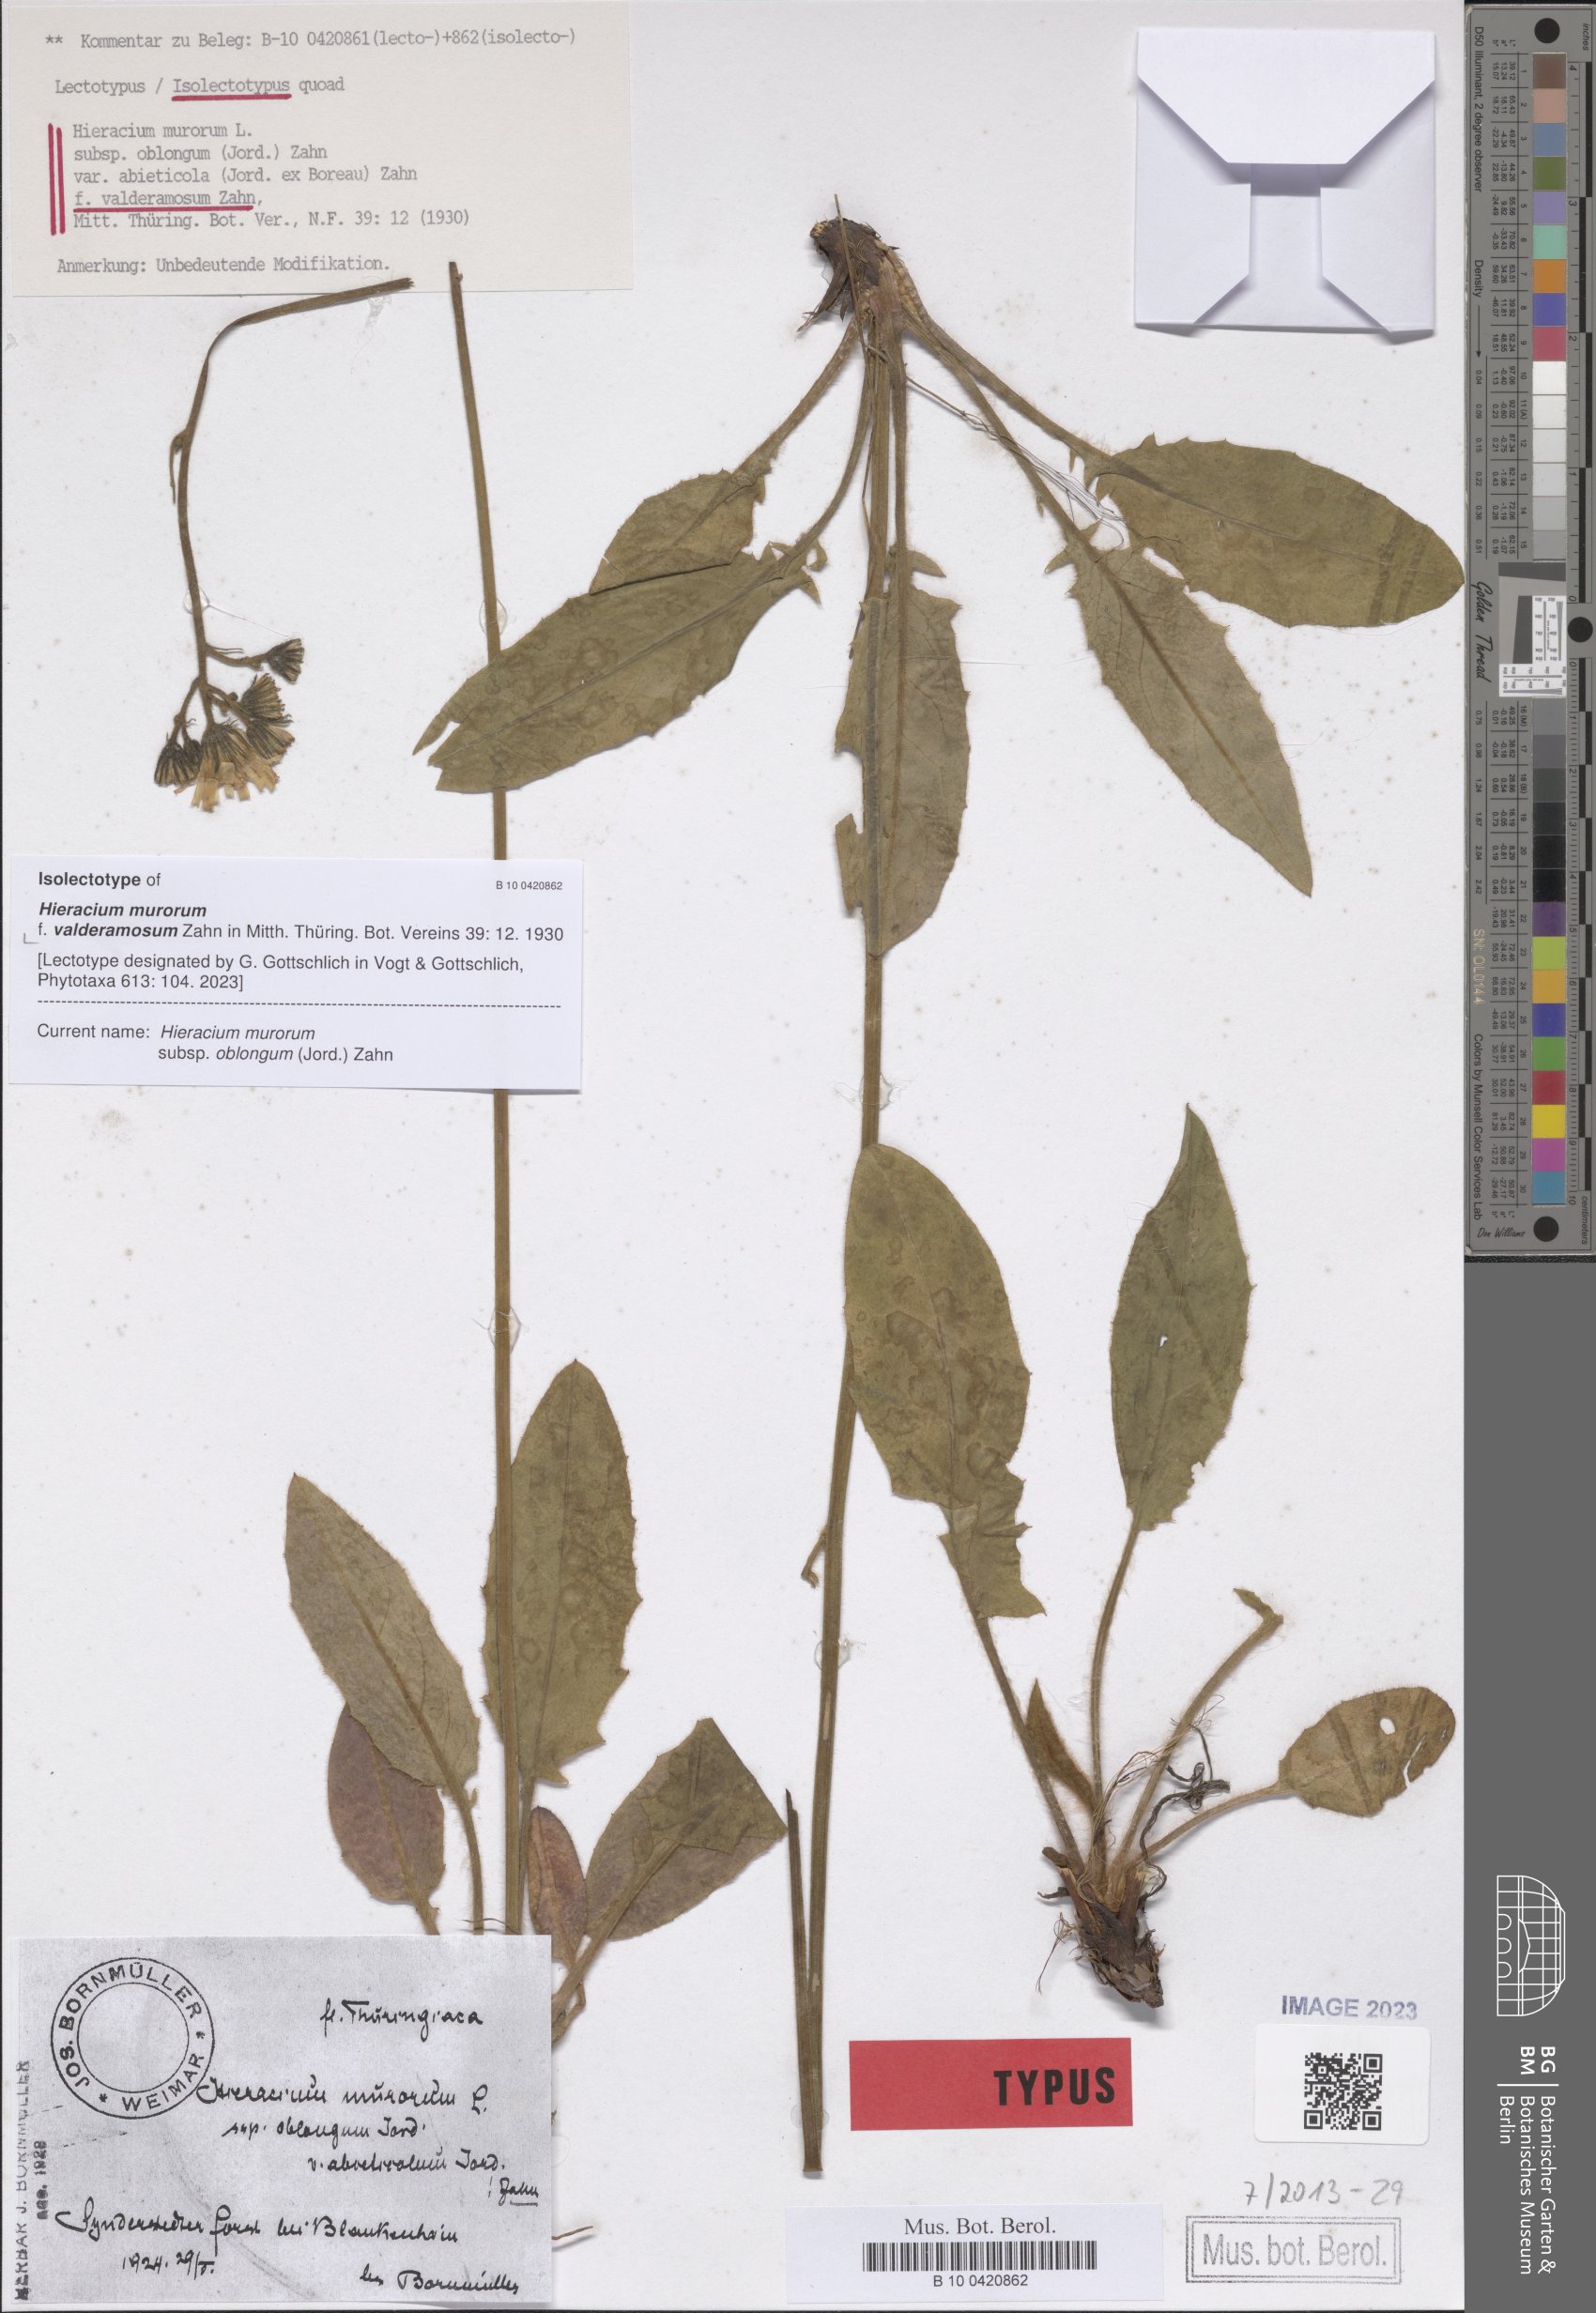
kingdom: Plantae
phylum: Tracheophyta
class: Magnoliopsida
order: Asterales
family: Asteraceae
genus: Hieracium
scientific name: Hieracium murorum
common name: Wall hawkweed
